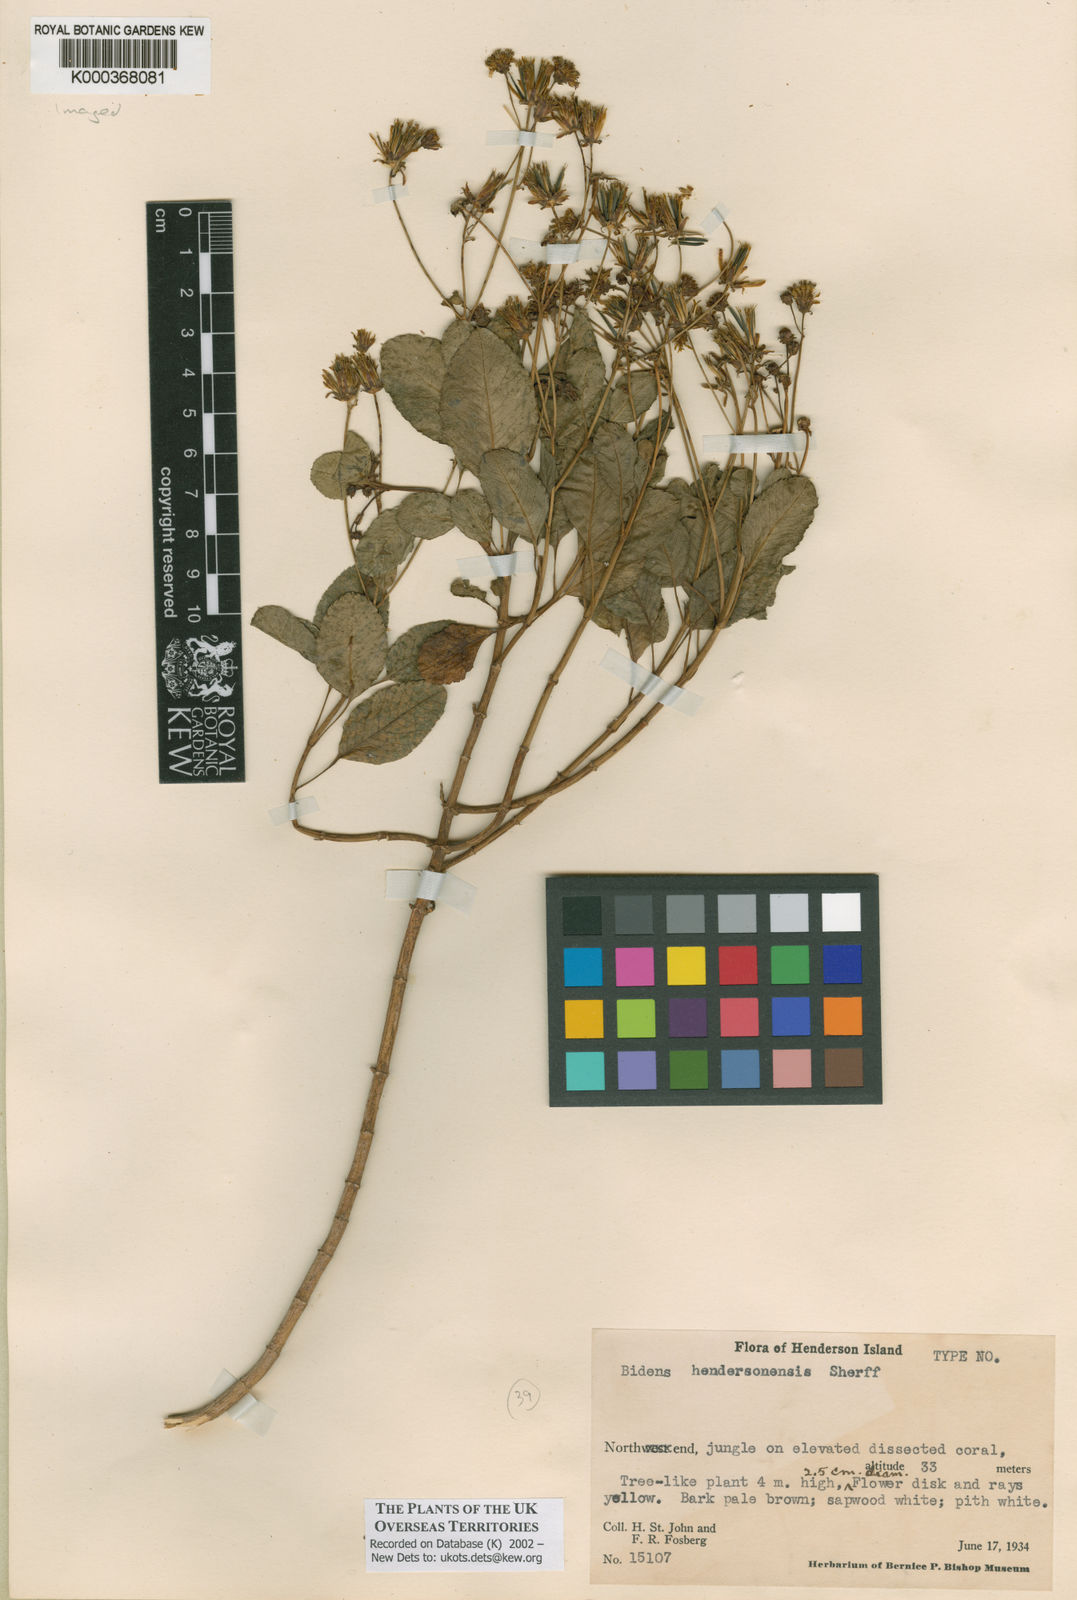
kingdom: Plantae
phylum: Tracheophyta
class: Magnoliopsida
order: Asterales
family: Asteraceae
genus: Bidens
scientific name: Bidens hendersonensis
